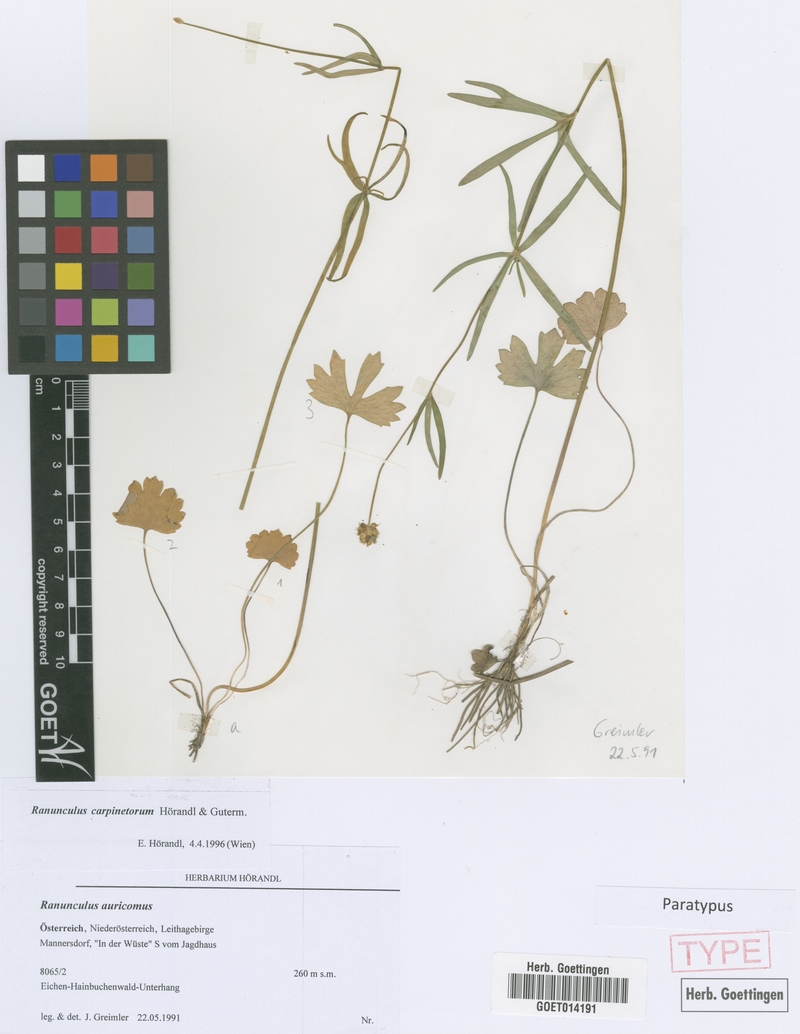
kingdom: Plantae
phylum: Tracheophyta
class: Magnoliopsida
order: Ranunculales
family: Ranunculaceae
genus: Ranunculus
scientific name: Ranunculus carpinetorum
